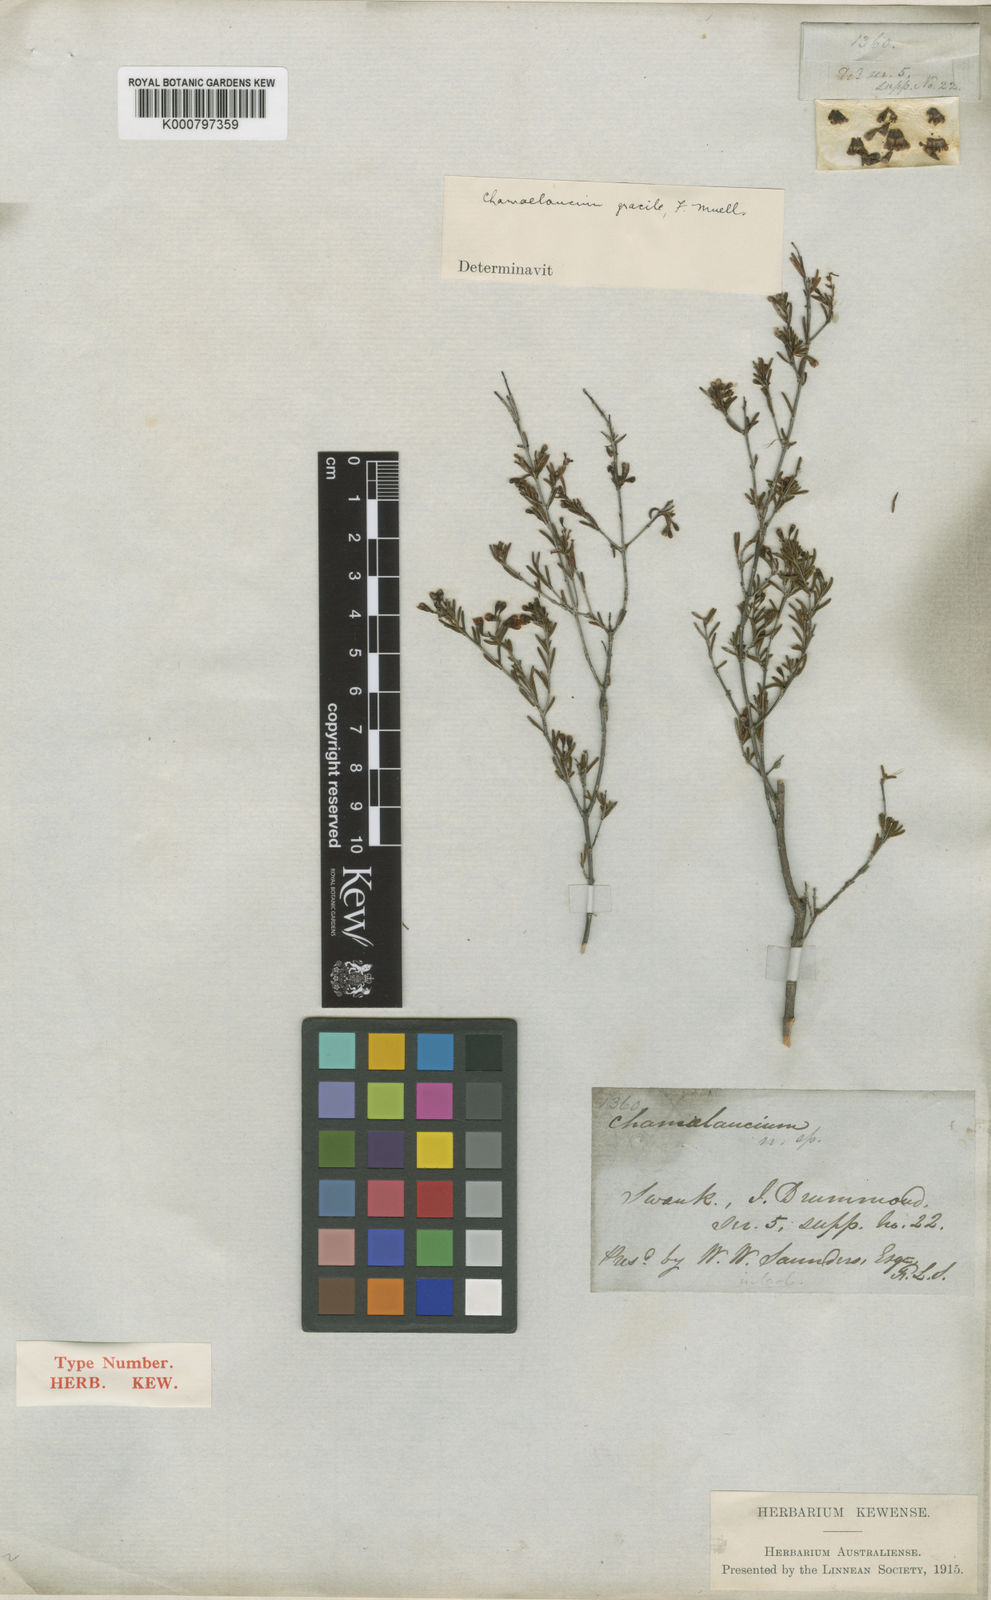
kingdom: Plantae
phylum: Tracheophyta
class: Magnoliopsida
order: Myrtales
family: Myrtaceae
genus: Chamelaucium
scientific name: Chamelaucium gracile
